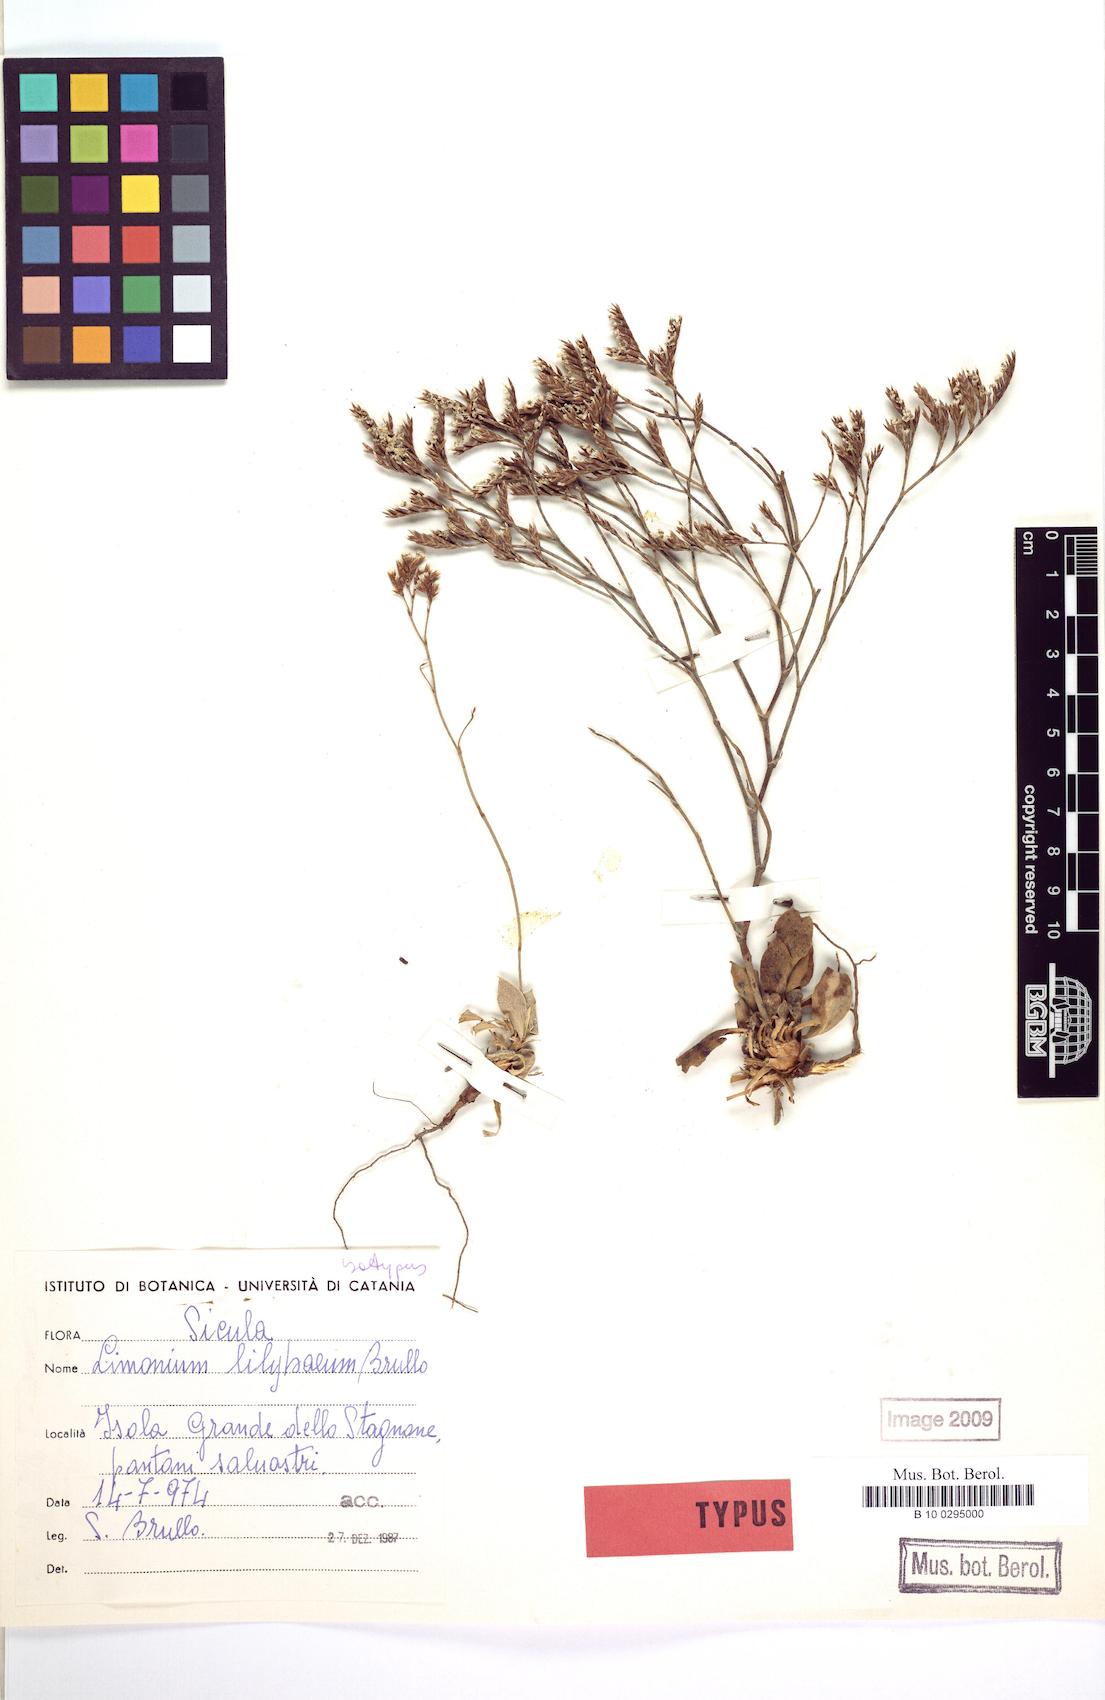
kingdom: Plantae
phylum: Tracheophyta
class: Magnoliopsida
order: Caryophyllales
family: Plumbaginaceae
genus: Limonium
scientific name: Limonium lilybaeum
